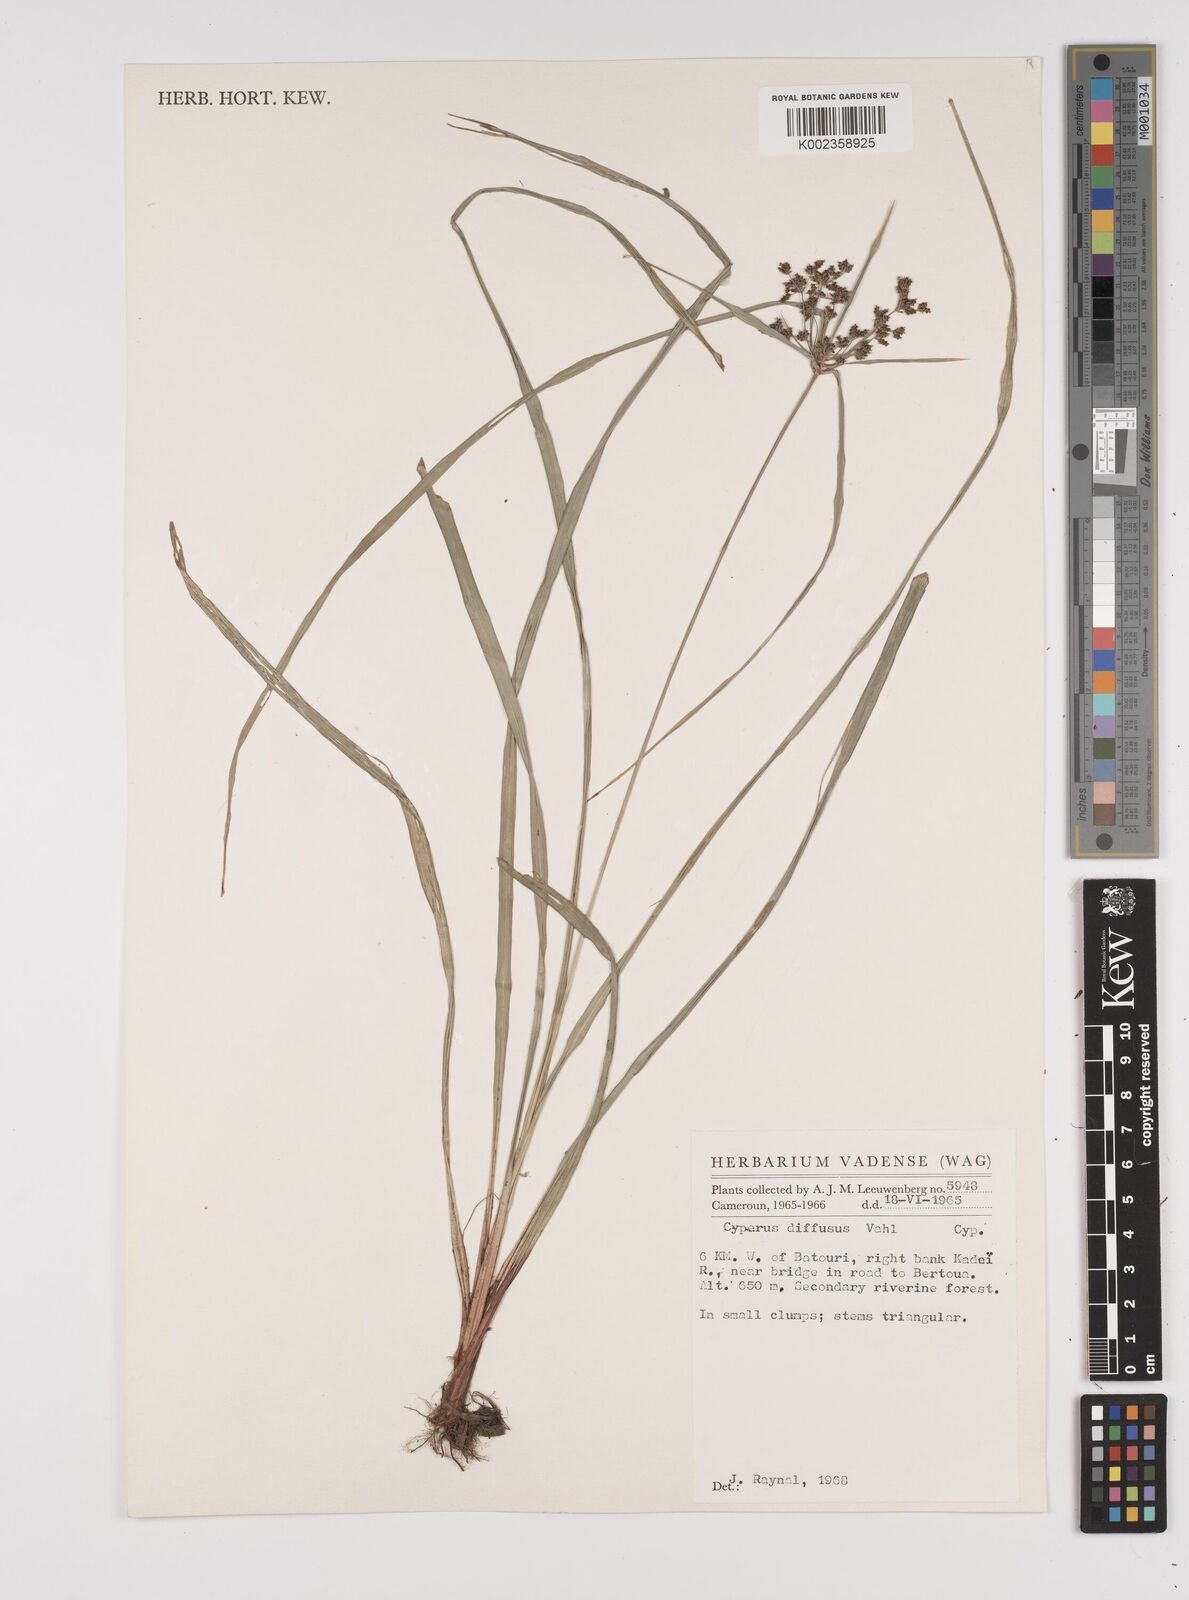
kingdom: Plantae
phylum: Tracheophyta
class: Liliopsida
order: Poales
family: Cyperaceae
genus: Cyperus
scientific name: Cyperus buchholzii
